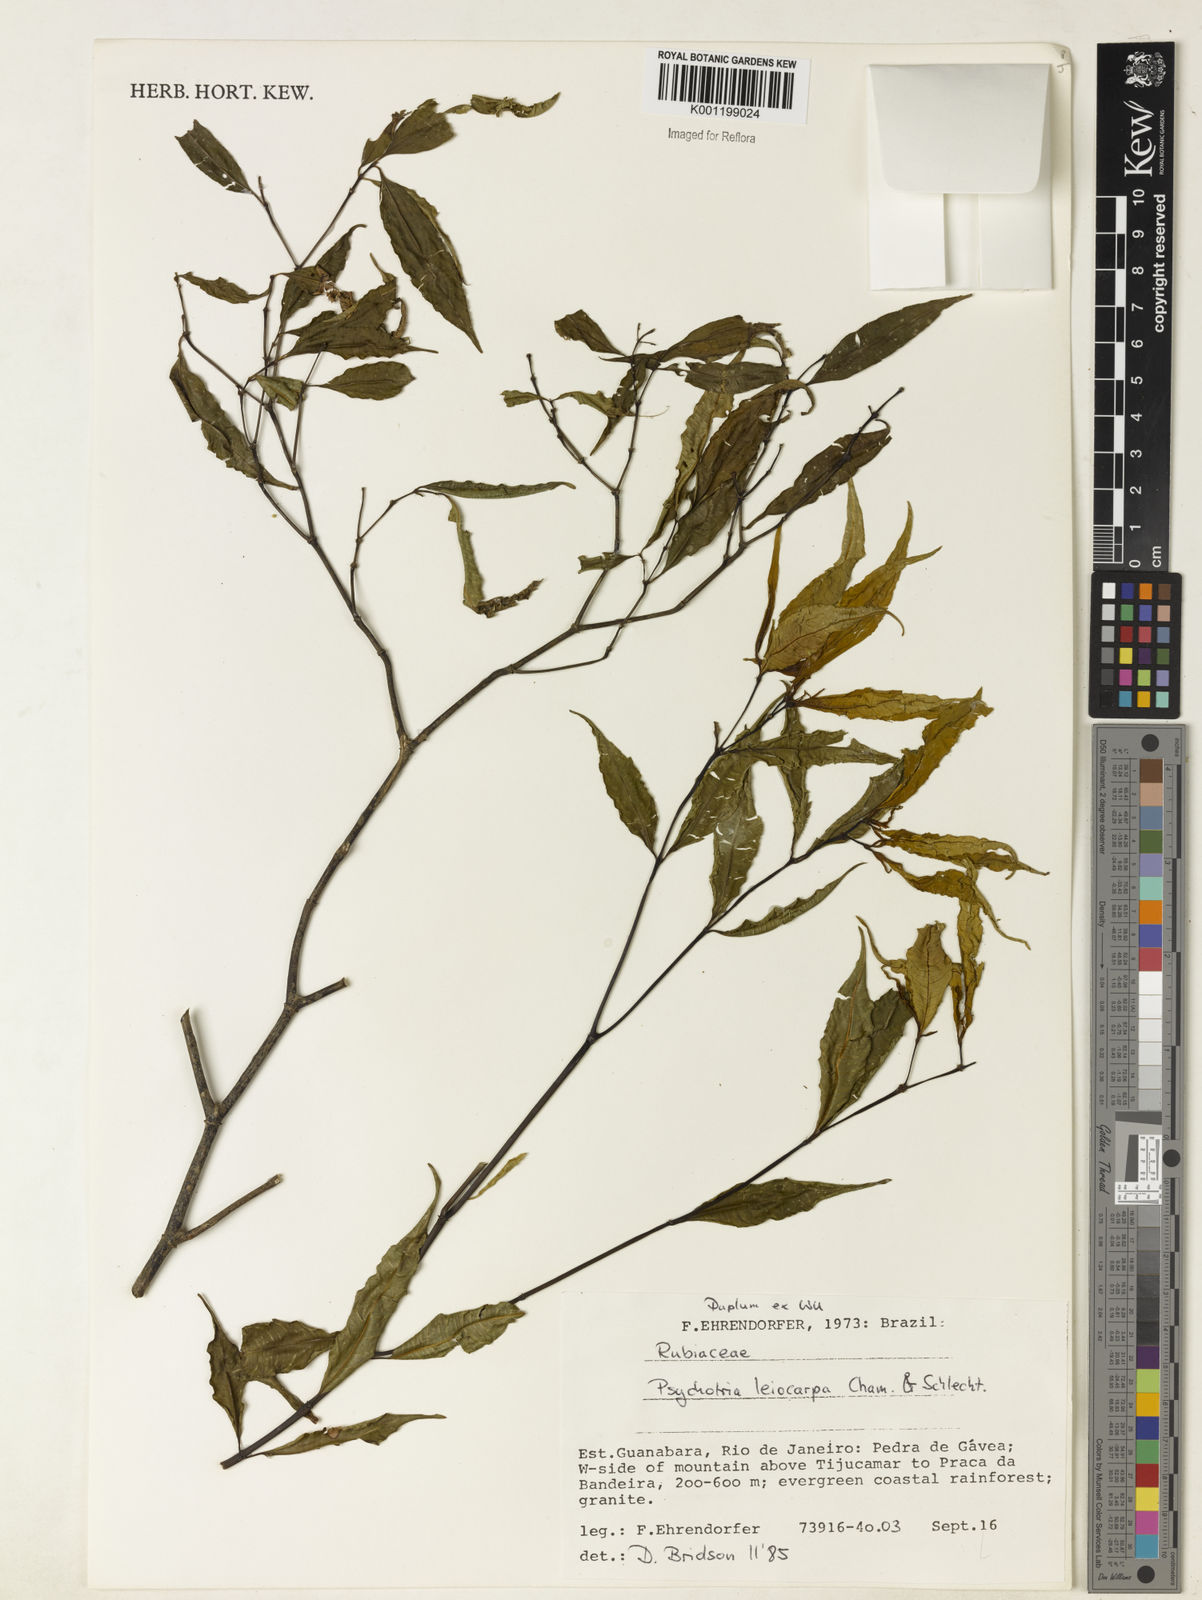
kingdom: Plantae
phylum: Tracheophyta
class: Magnoliopsida
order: Gentianales
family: Rubiaceae
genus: Psychotria
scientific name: Psychotria leiocarpa
